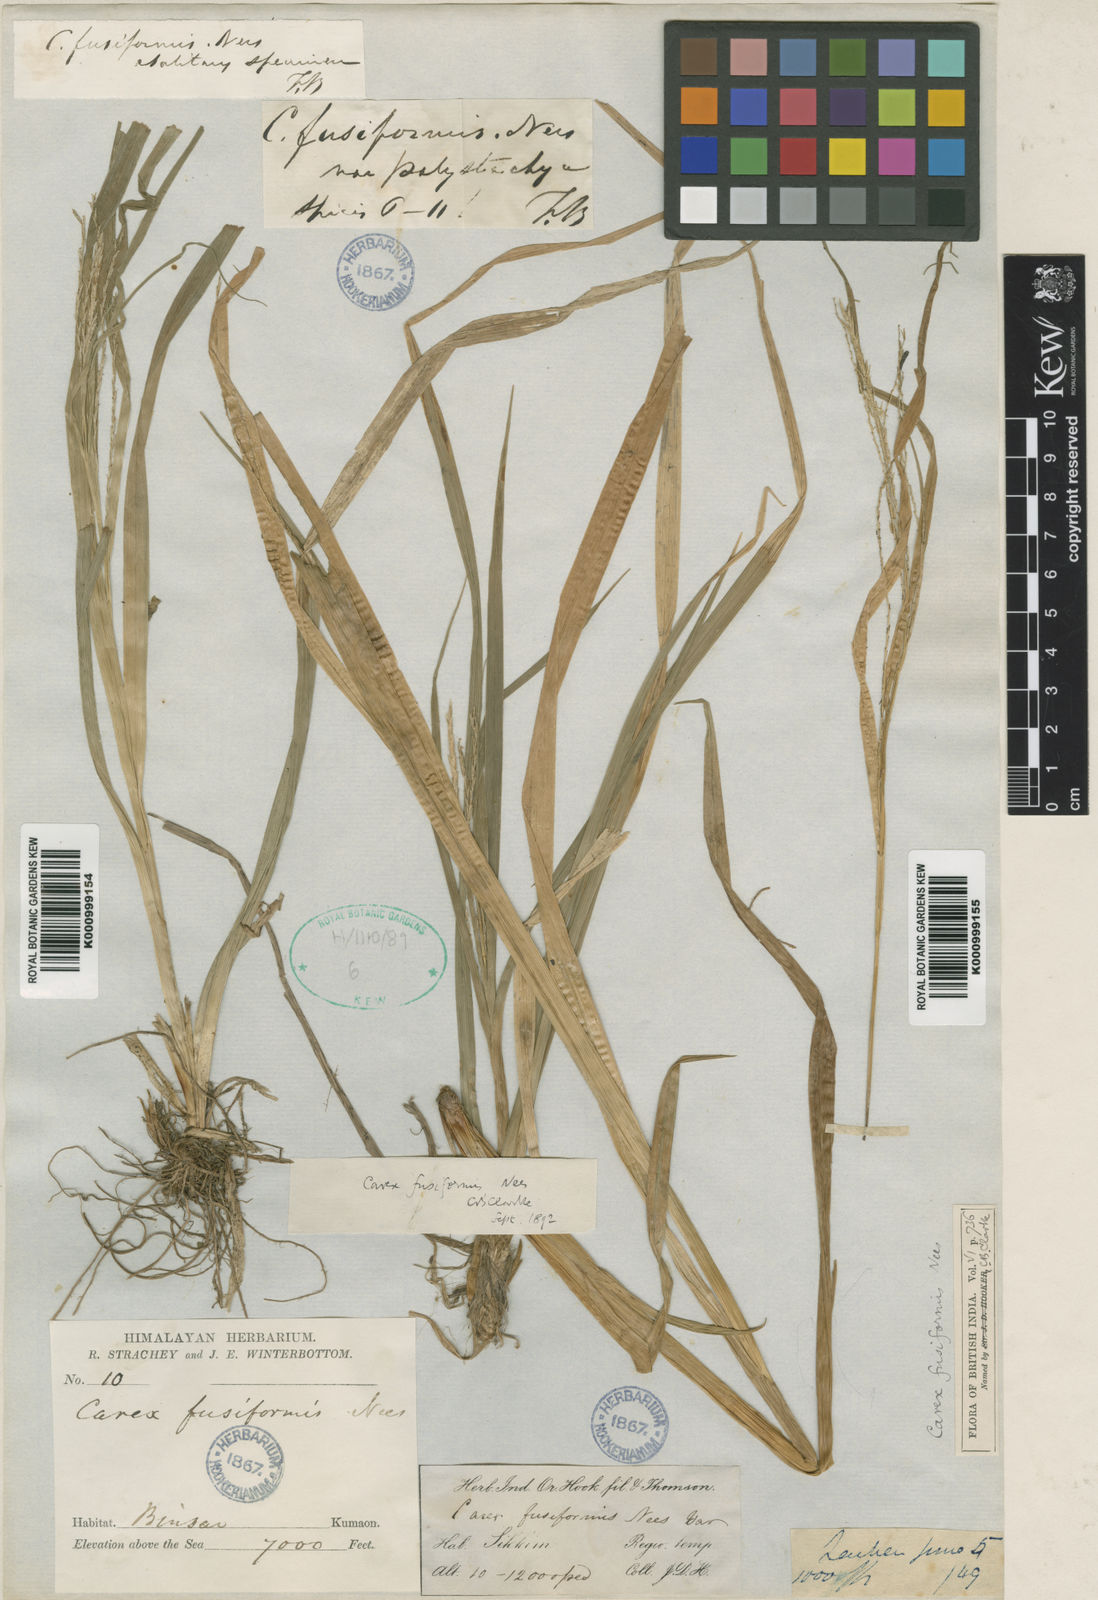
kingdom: Plantae
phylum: Tracheophyta
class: Liliopsida
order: Poales
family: Cyperaceae
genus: Carex
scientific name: Carex fusiformis
